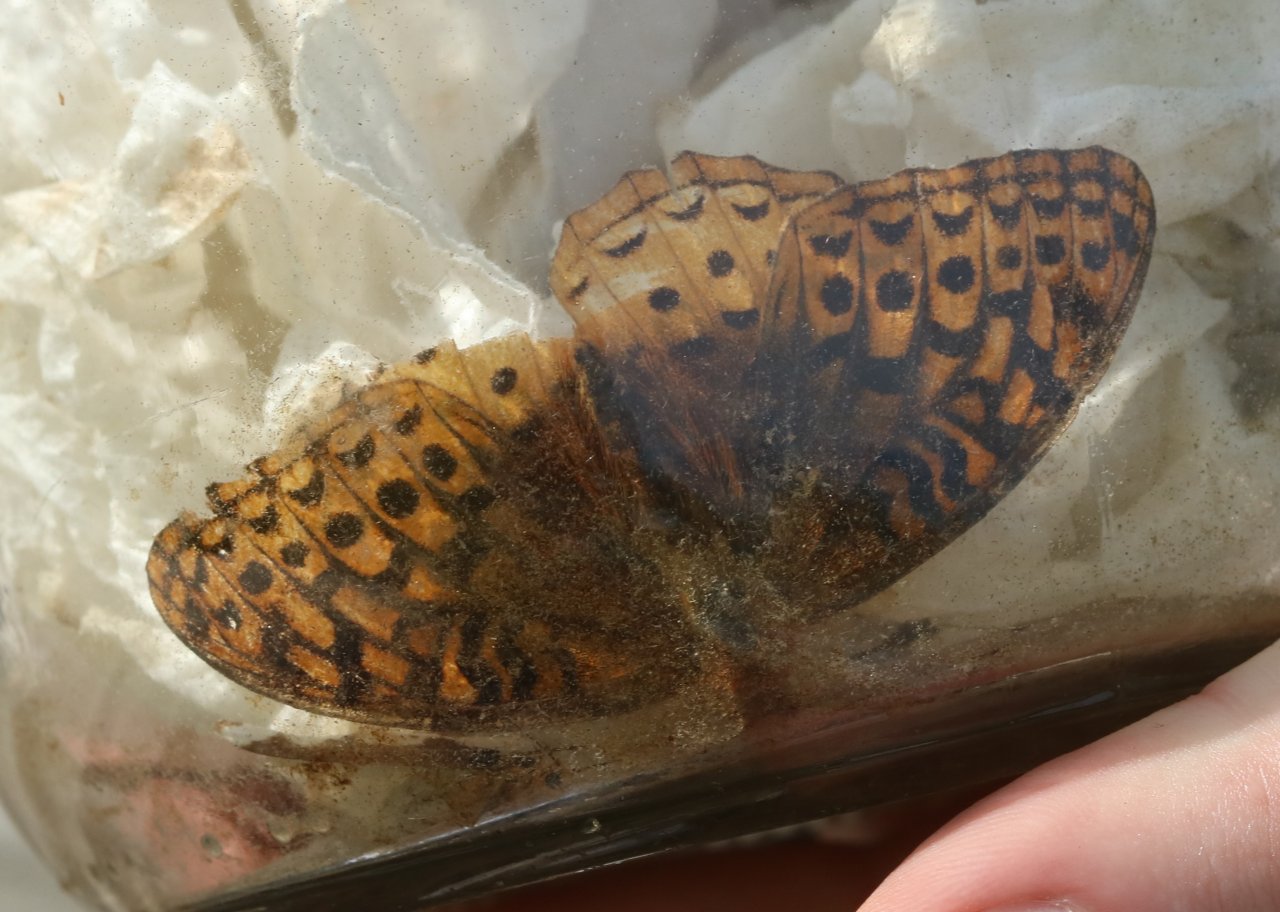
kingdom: Animalia
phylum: Arthropoda
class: Insecta
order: Lepidoptera
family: Nymphalidae
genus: Speyeria
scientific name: Speyeria cybele
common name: Great Spangled Fritillary
